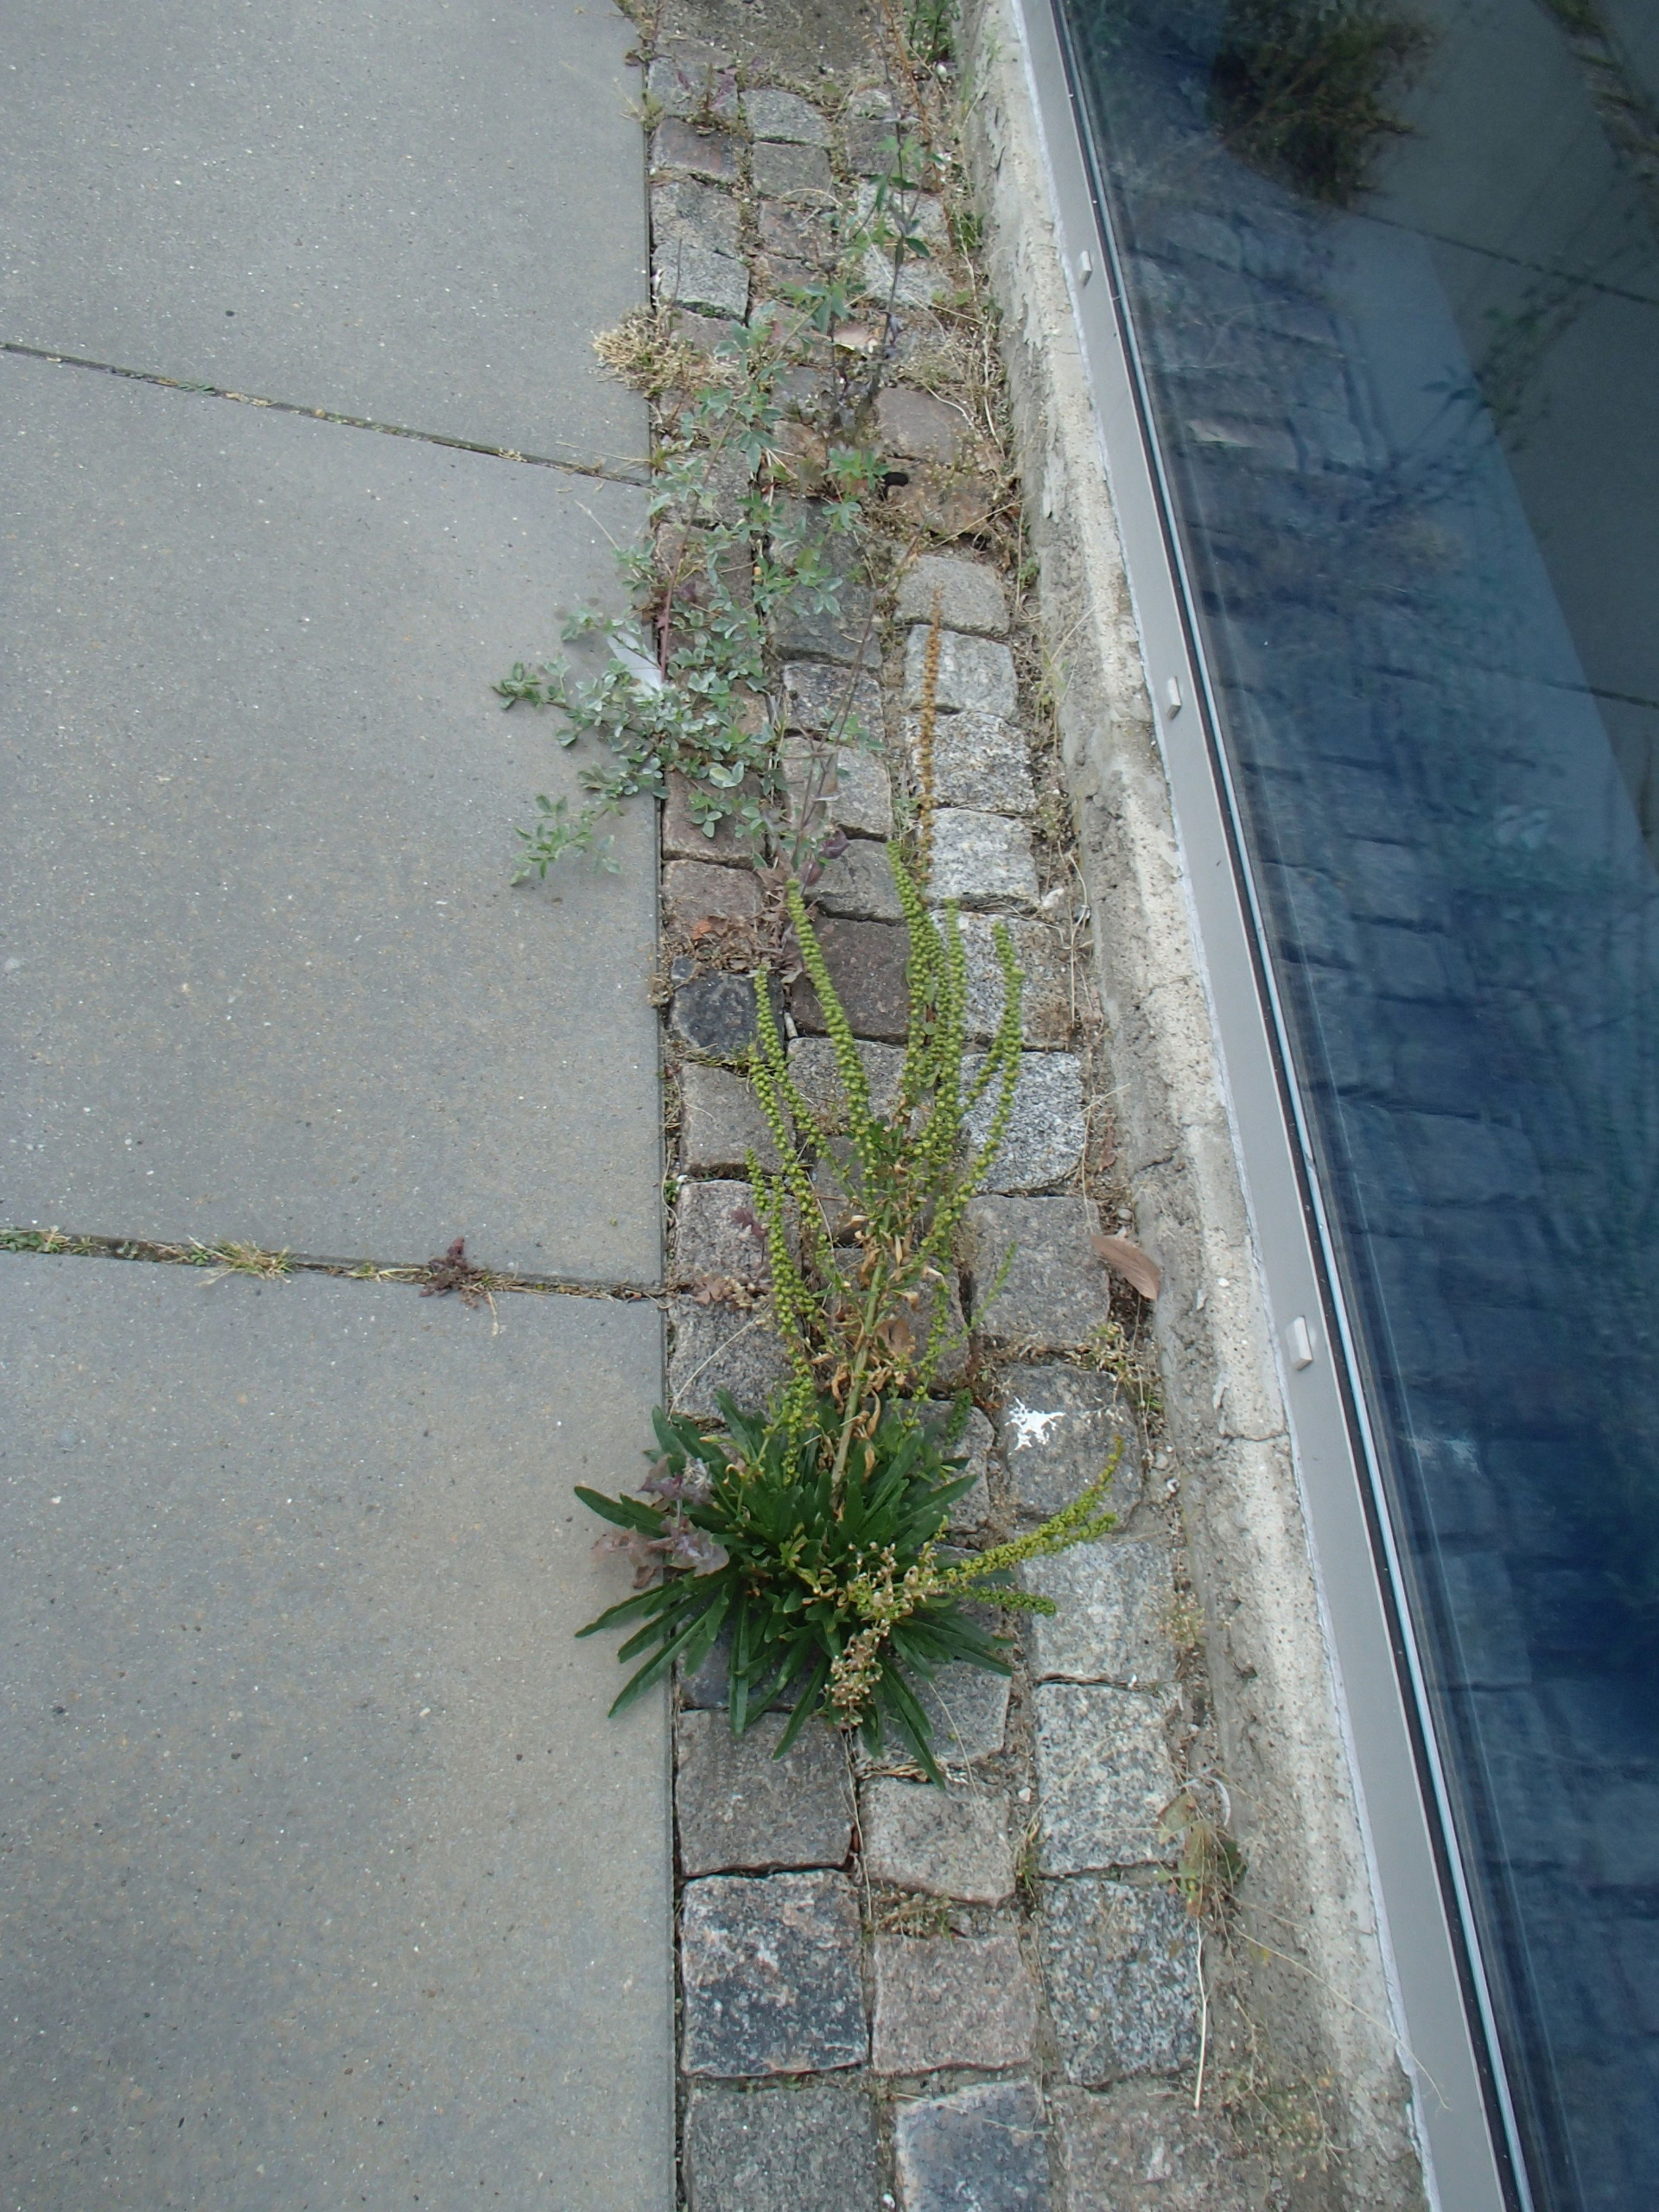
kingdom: Plantae
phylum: Tracheophyta
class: Magnoliopsida
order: Brassicales
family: Resedaceae
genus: Reseda
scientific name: Reseda luteola
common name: Farve-reseda
